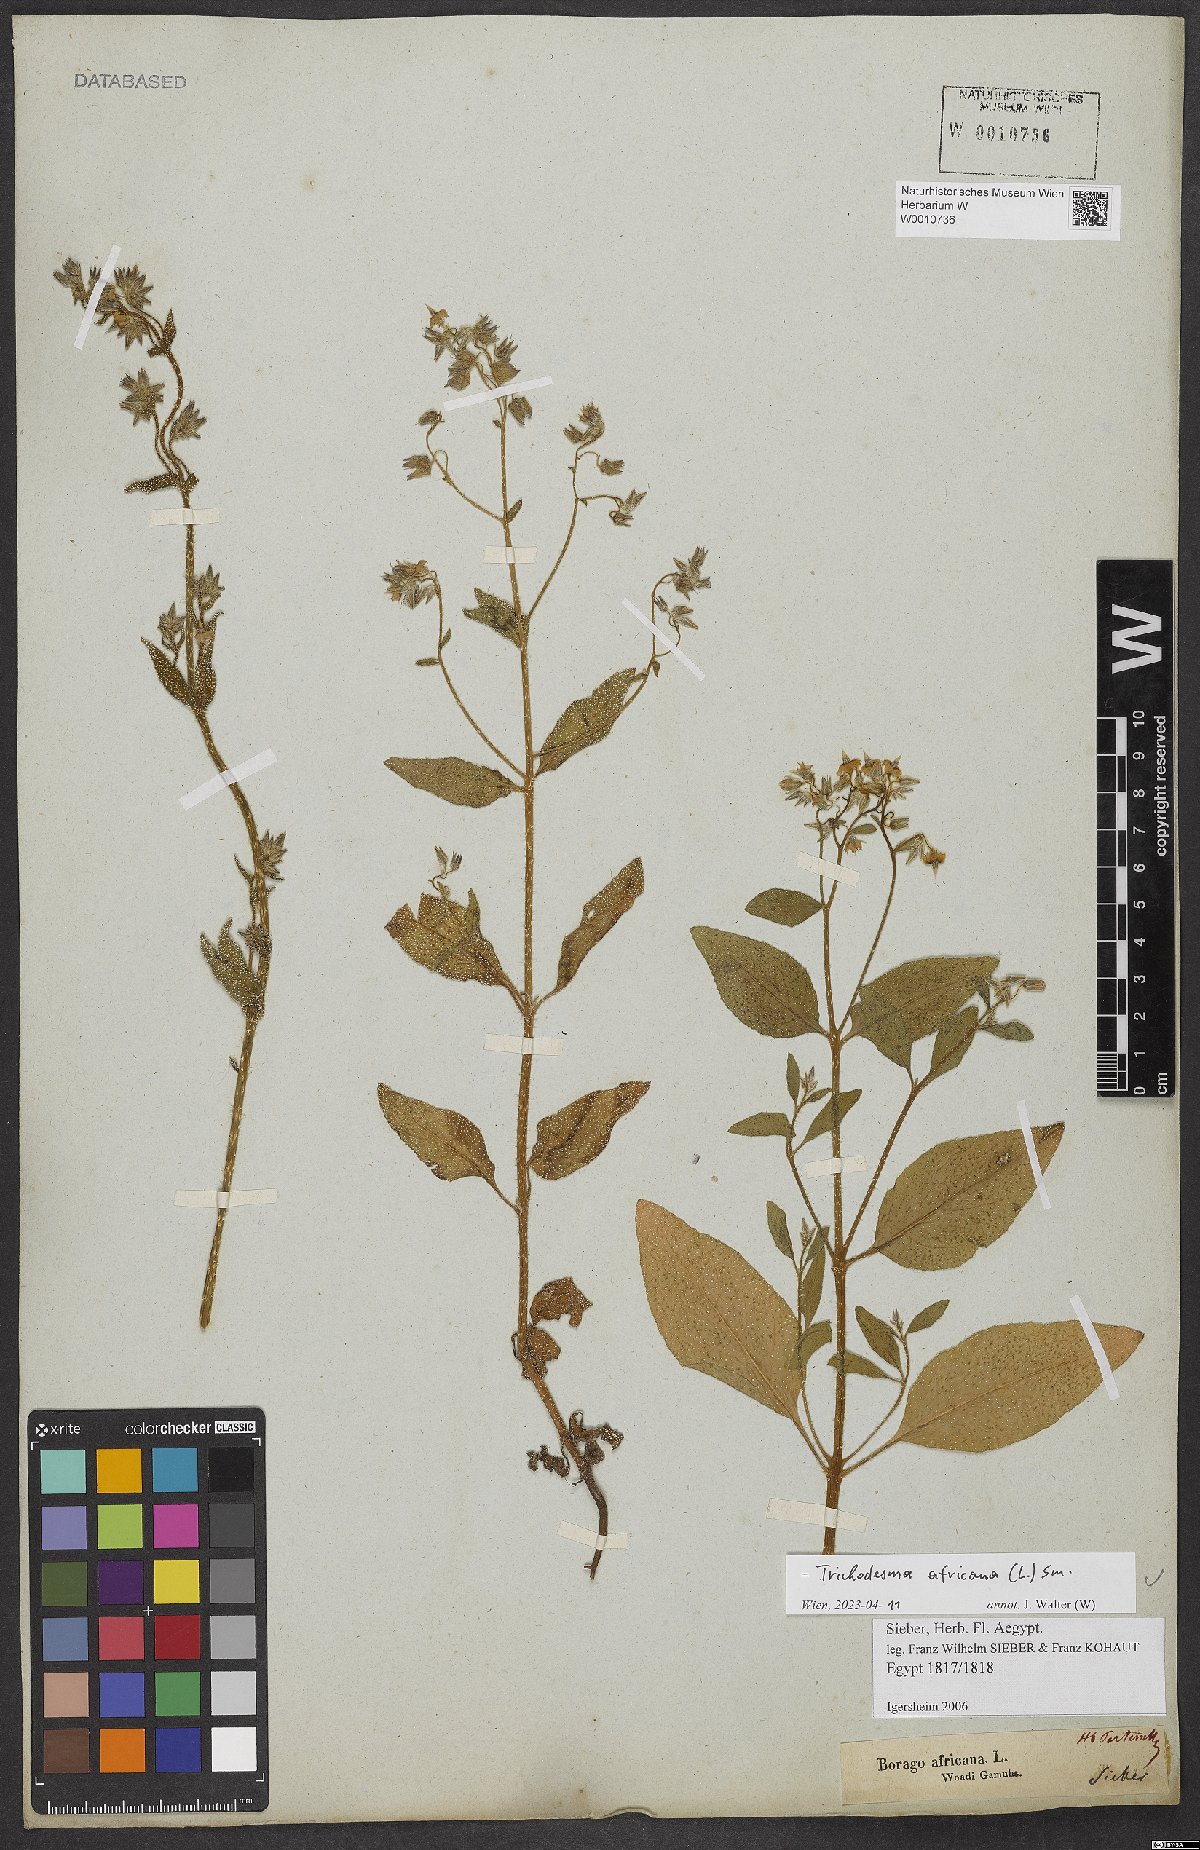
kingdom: Plantae
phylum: Tracheophyta
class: Magnoliopsida
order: Boraginales
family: Boraginaceae
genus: Trichodesma
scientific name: Trichodesma africanum
